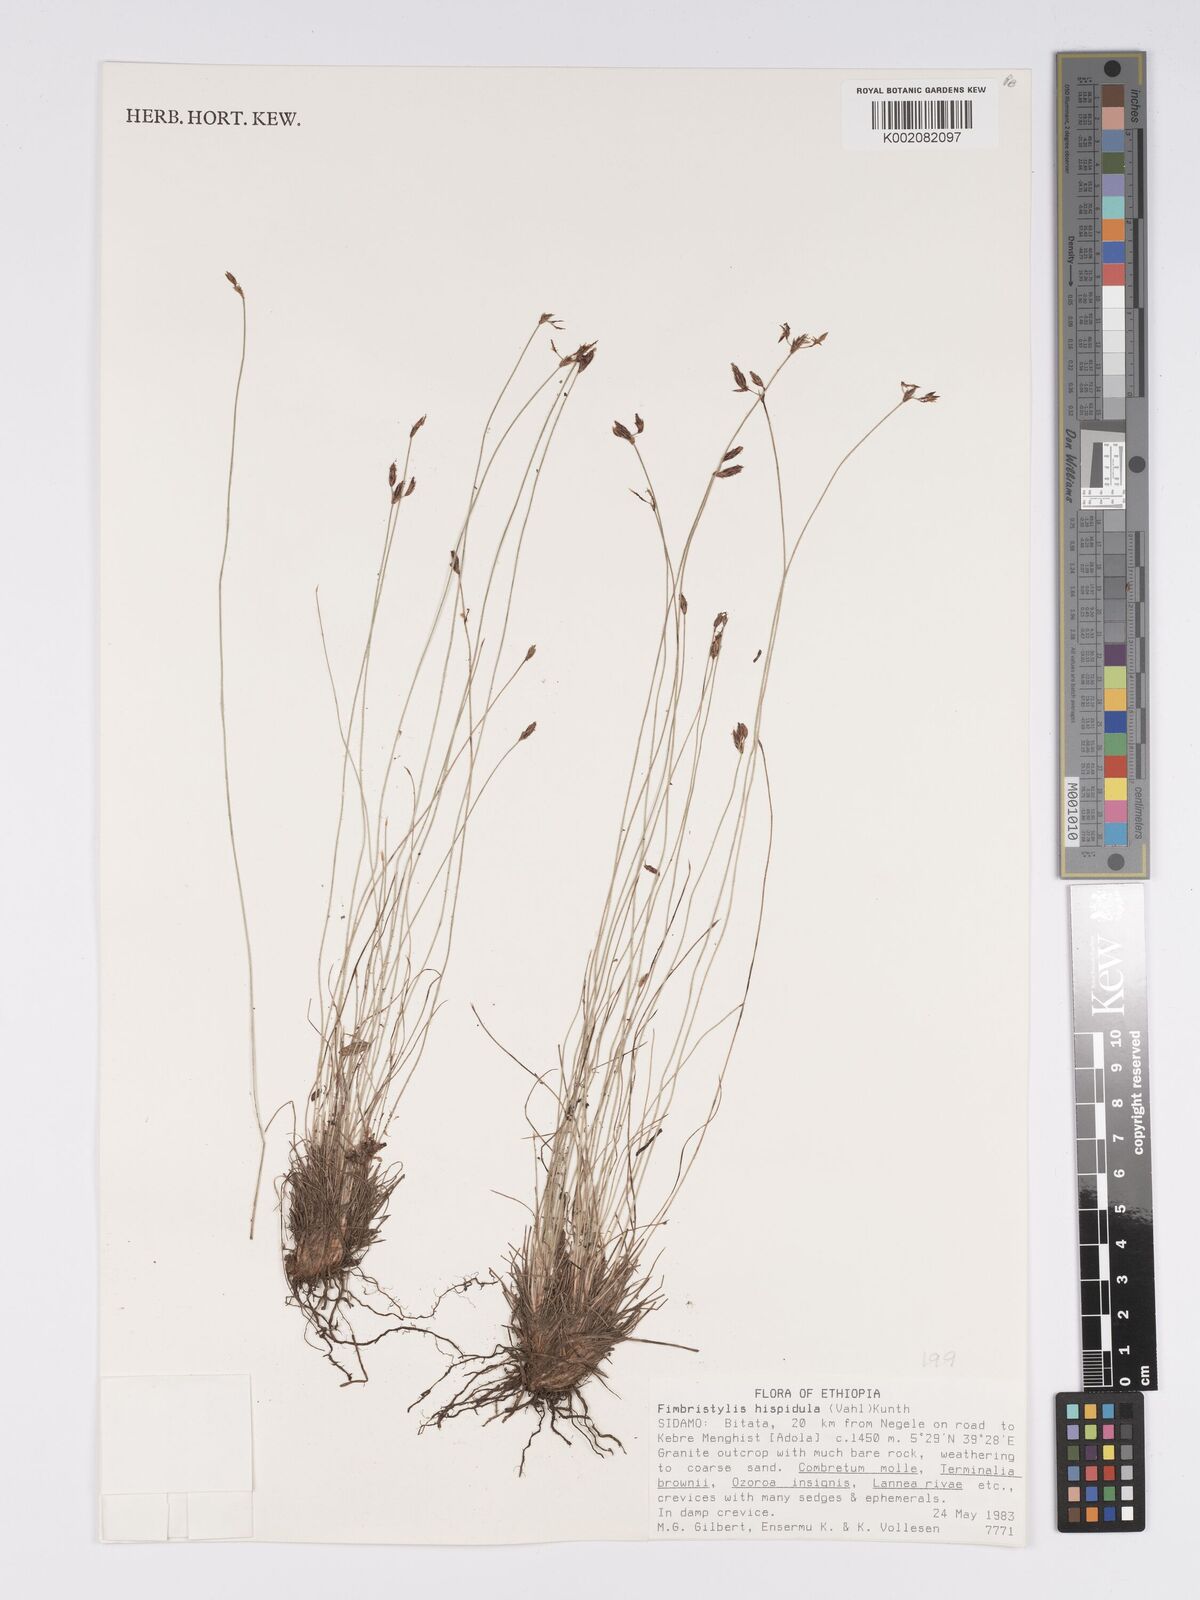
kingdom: Plantae
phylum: Tracheophyta
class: Liliopsida
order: Poales
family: Cyperaceae
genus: Bulbostylis
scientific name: Bulbostylis hispidula
